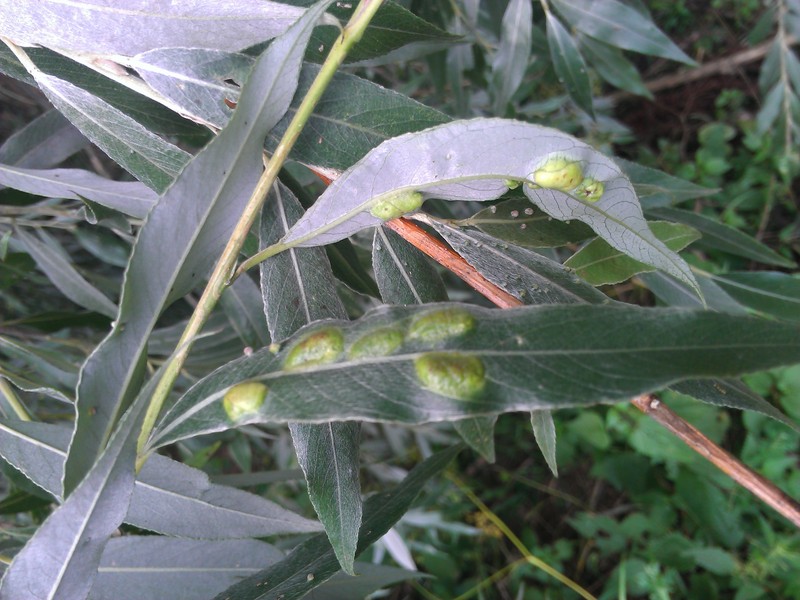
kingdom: Animalia
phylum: Arthropoda
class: Insecta
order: Hymenoptera
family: Tenthredinidae
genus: Pontania
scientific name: Pontania proxima
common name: Common sawfly
